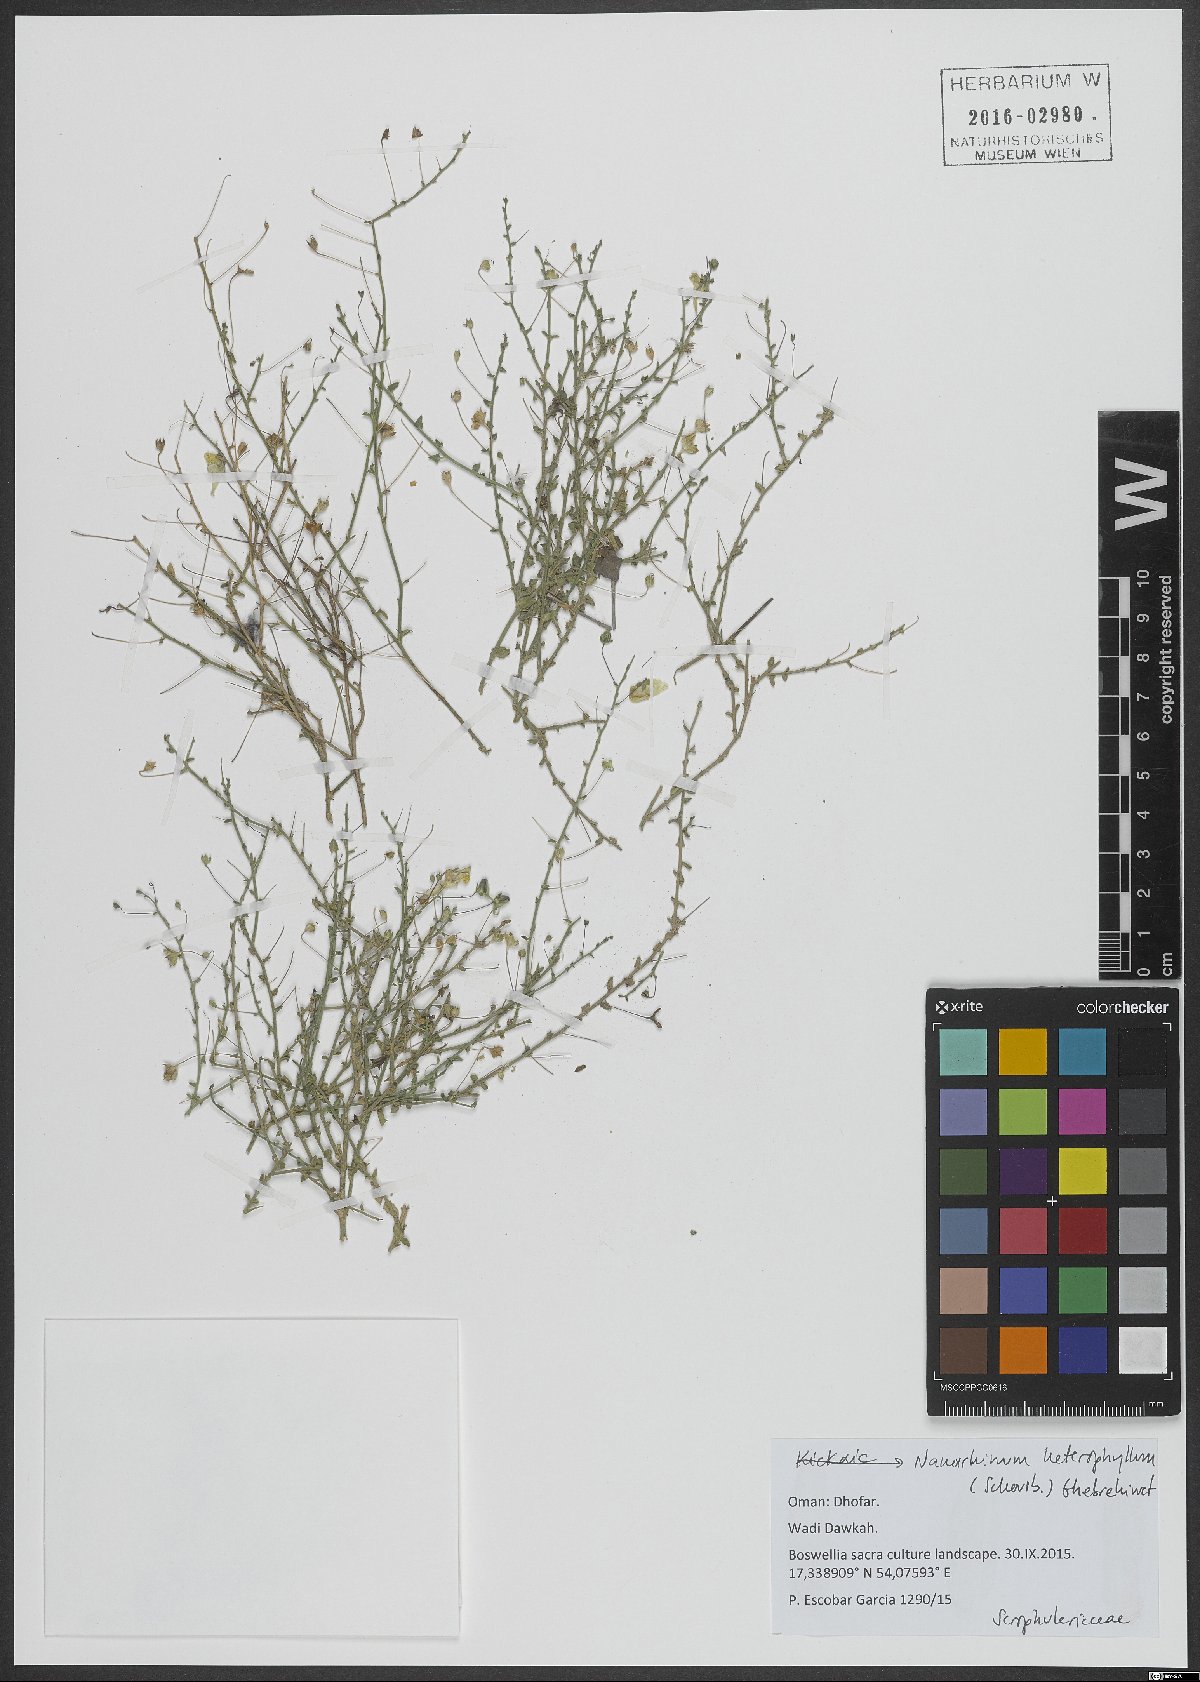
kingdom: Plantae
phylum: Tracheophyta
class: Magnoliopsida
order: Lamiales
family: Plantaginaceae
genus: Nanorrhinum
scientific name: Nanorrhinum heterophyllum
